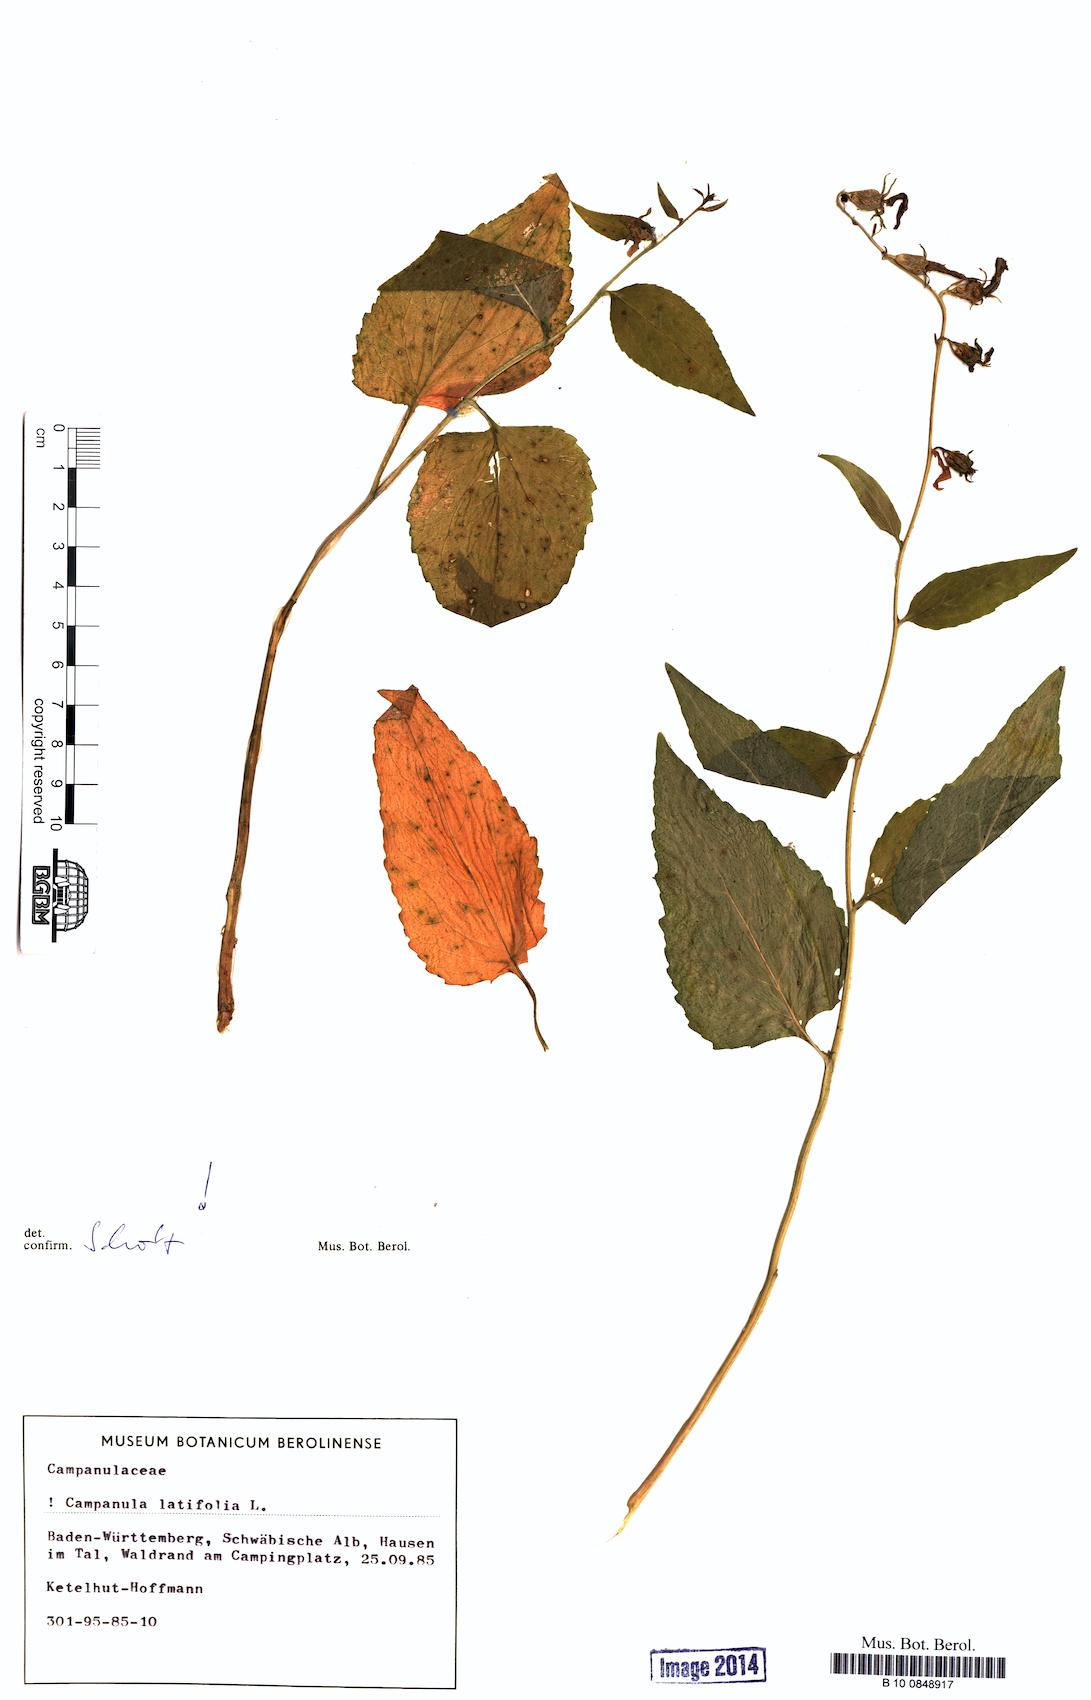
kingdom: Plantae
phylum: Tracheophyta
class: Magnoliopsida
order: Asterales
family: Campanulaceae
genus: Campanula
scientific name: Campanula latifolia
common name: Giant bellflower
